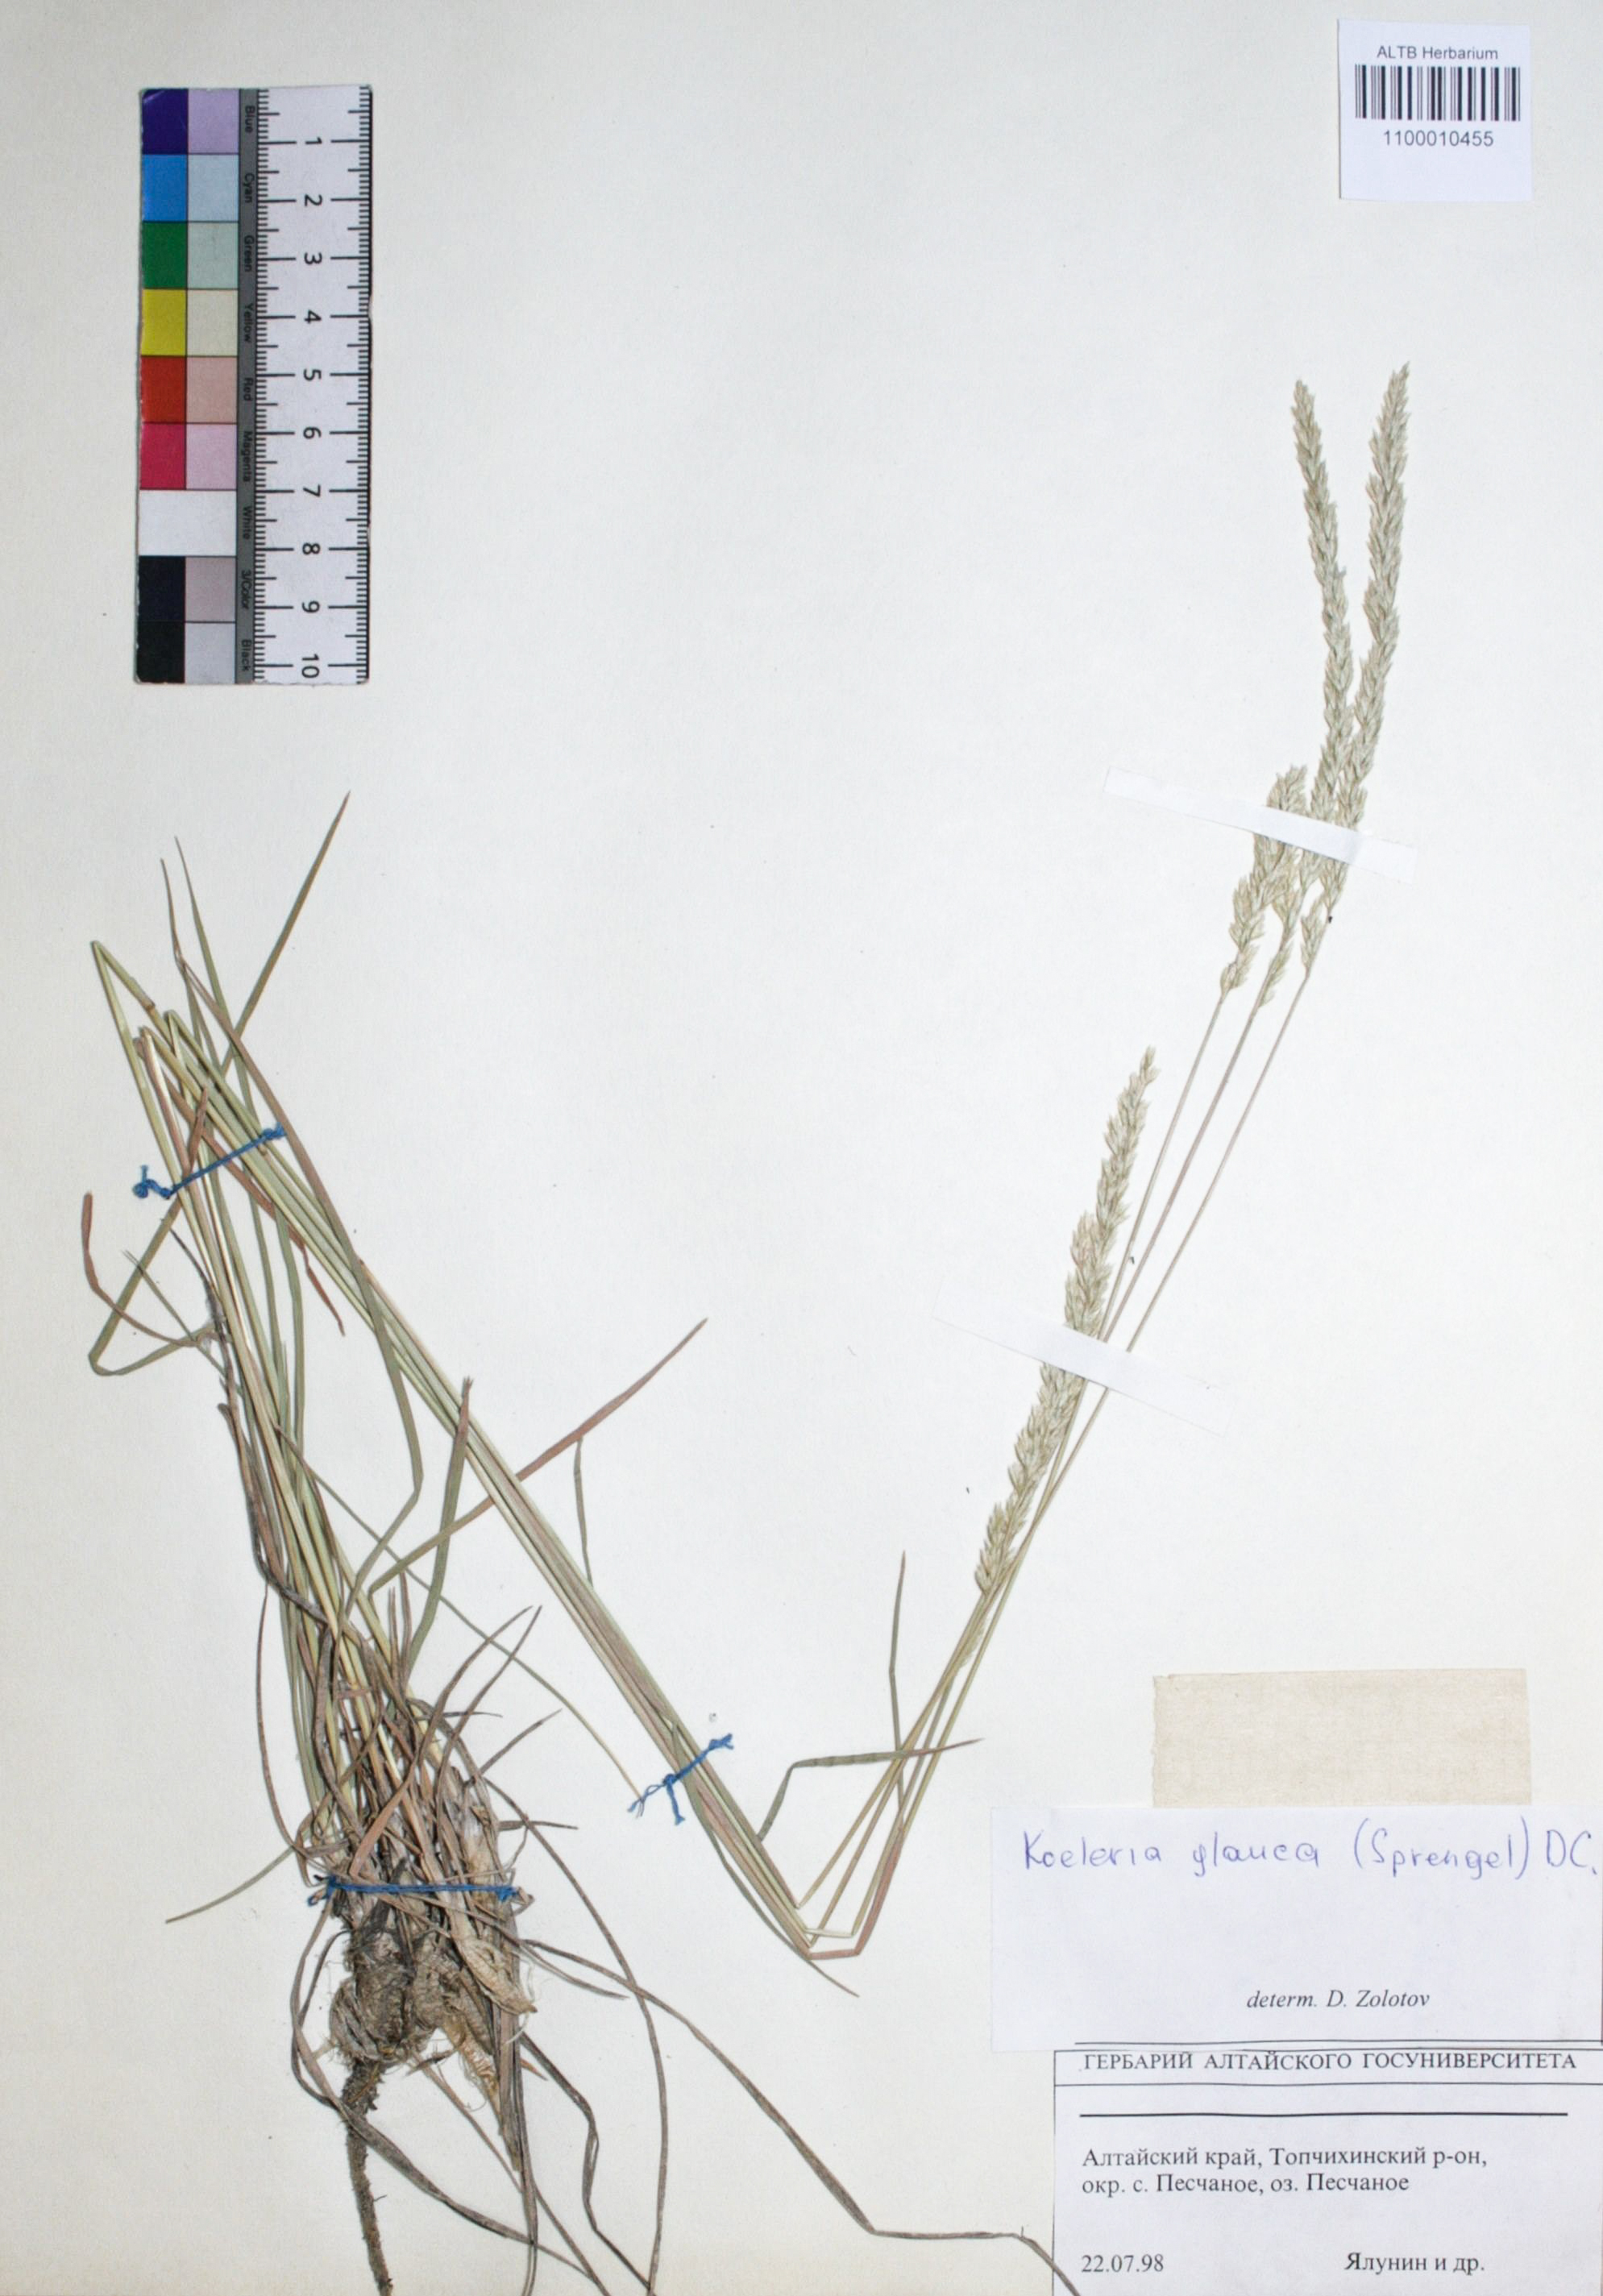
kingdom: Plantae
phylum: Tracheophyta
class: Liliopsida
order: Poales
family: Poaceae
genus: Koeleria
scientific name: Koeleria glauca
